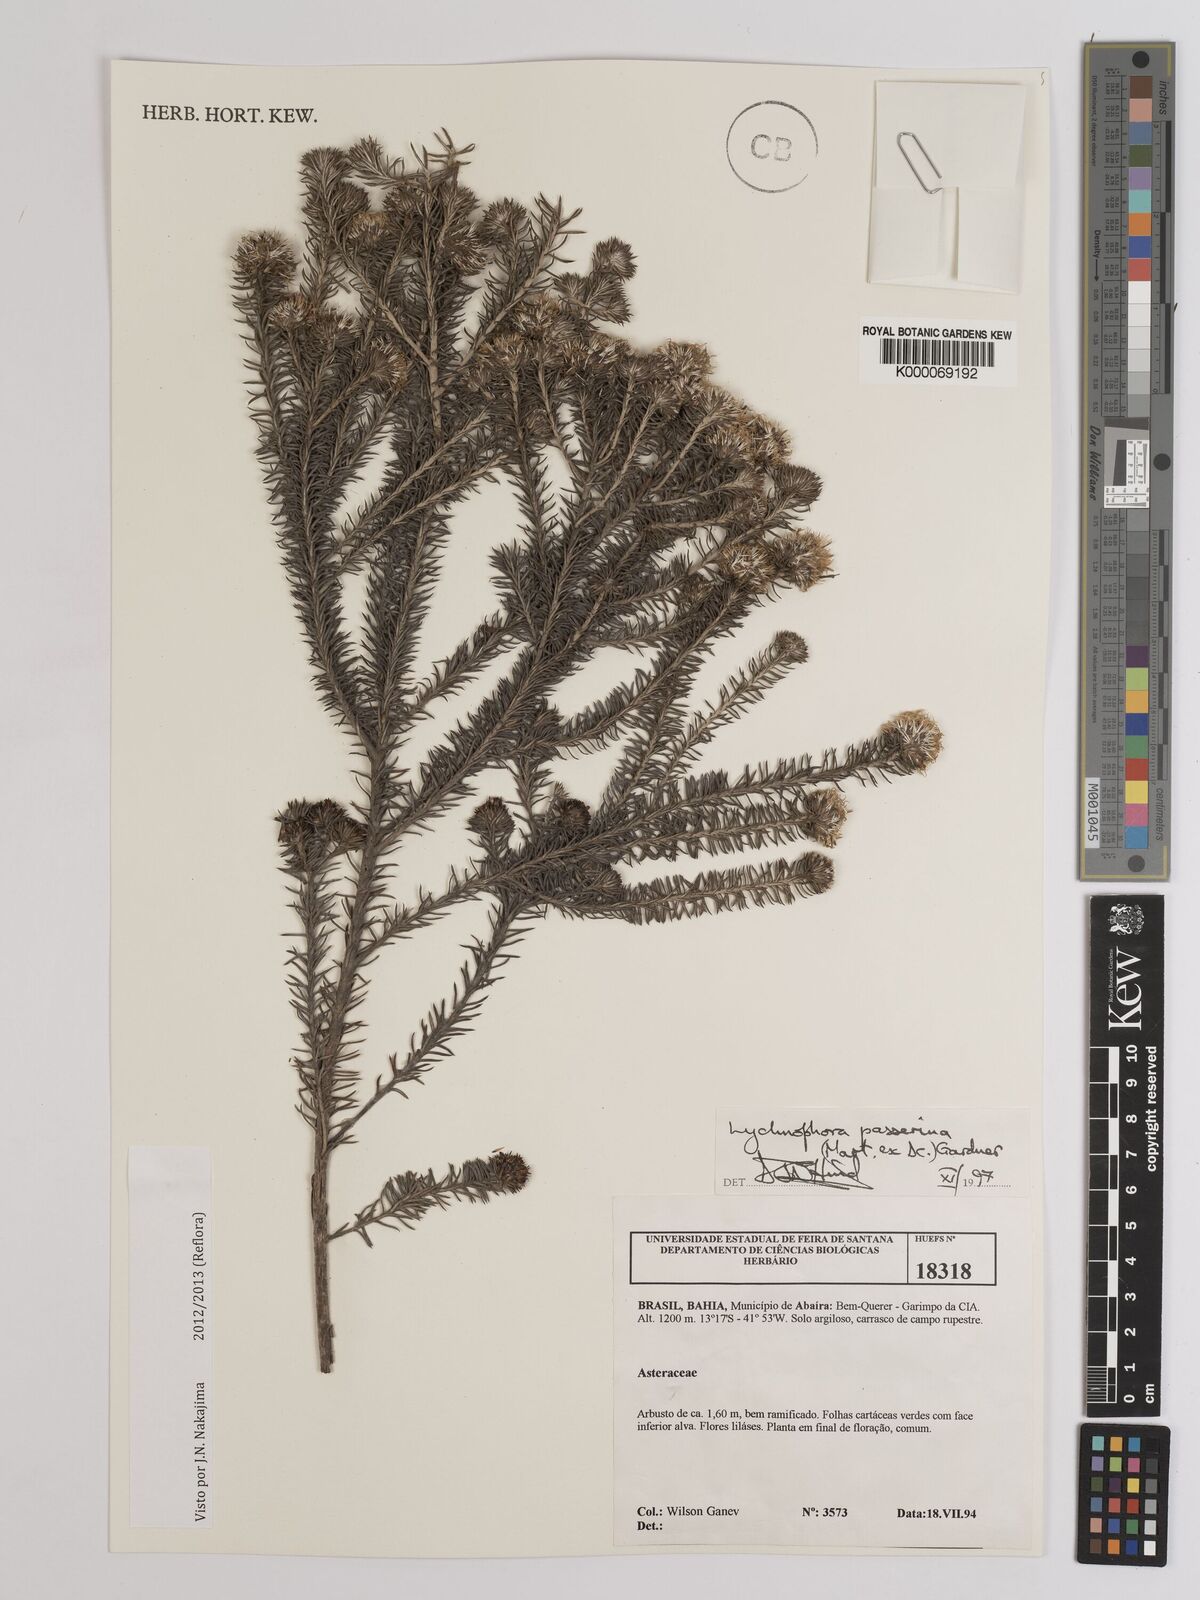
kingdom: Plantae
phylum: Tracheophyta
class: Magnoliopsida
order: Asterales
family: Asteraceae
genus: Lychnophora
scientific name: Lychnophora passerina
